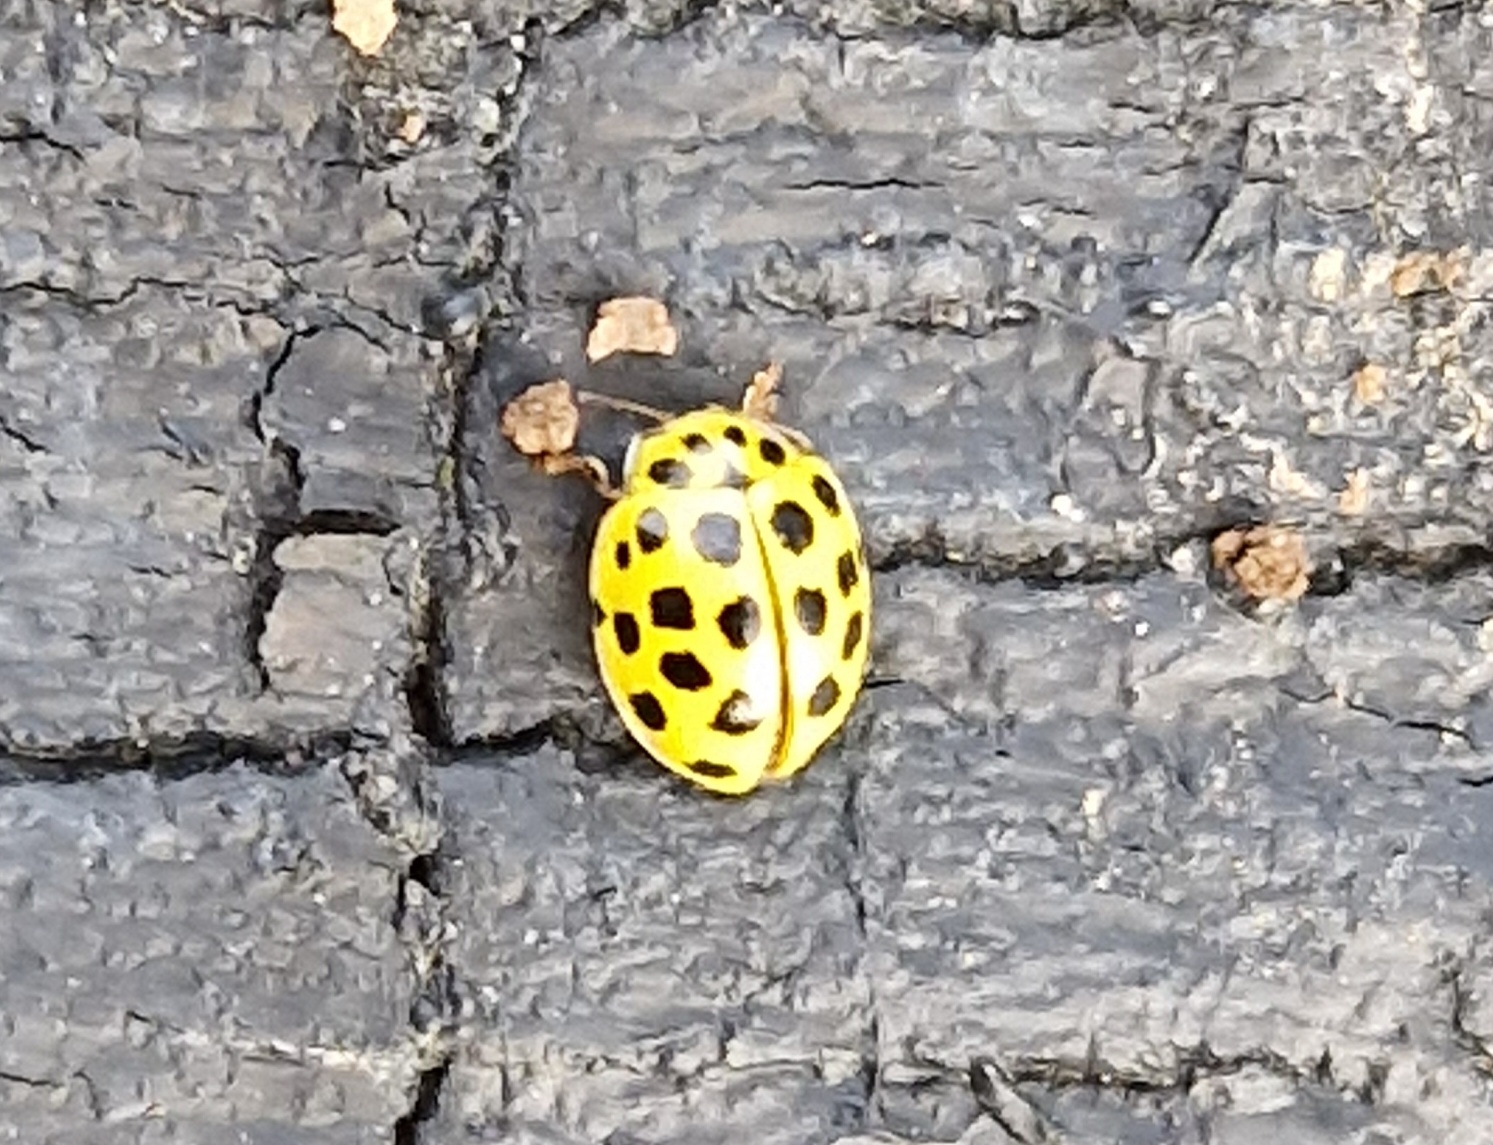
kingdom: Animalia
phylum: Arthropoda
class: Insecta
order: Coleoptera
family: Coccinellidae
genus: Psyllobora
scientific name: Psyllobora vigintiduopunctata
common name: Toogtyveplettet mariehøne
